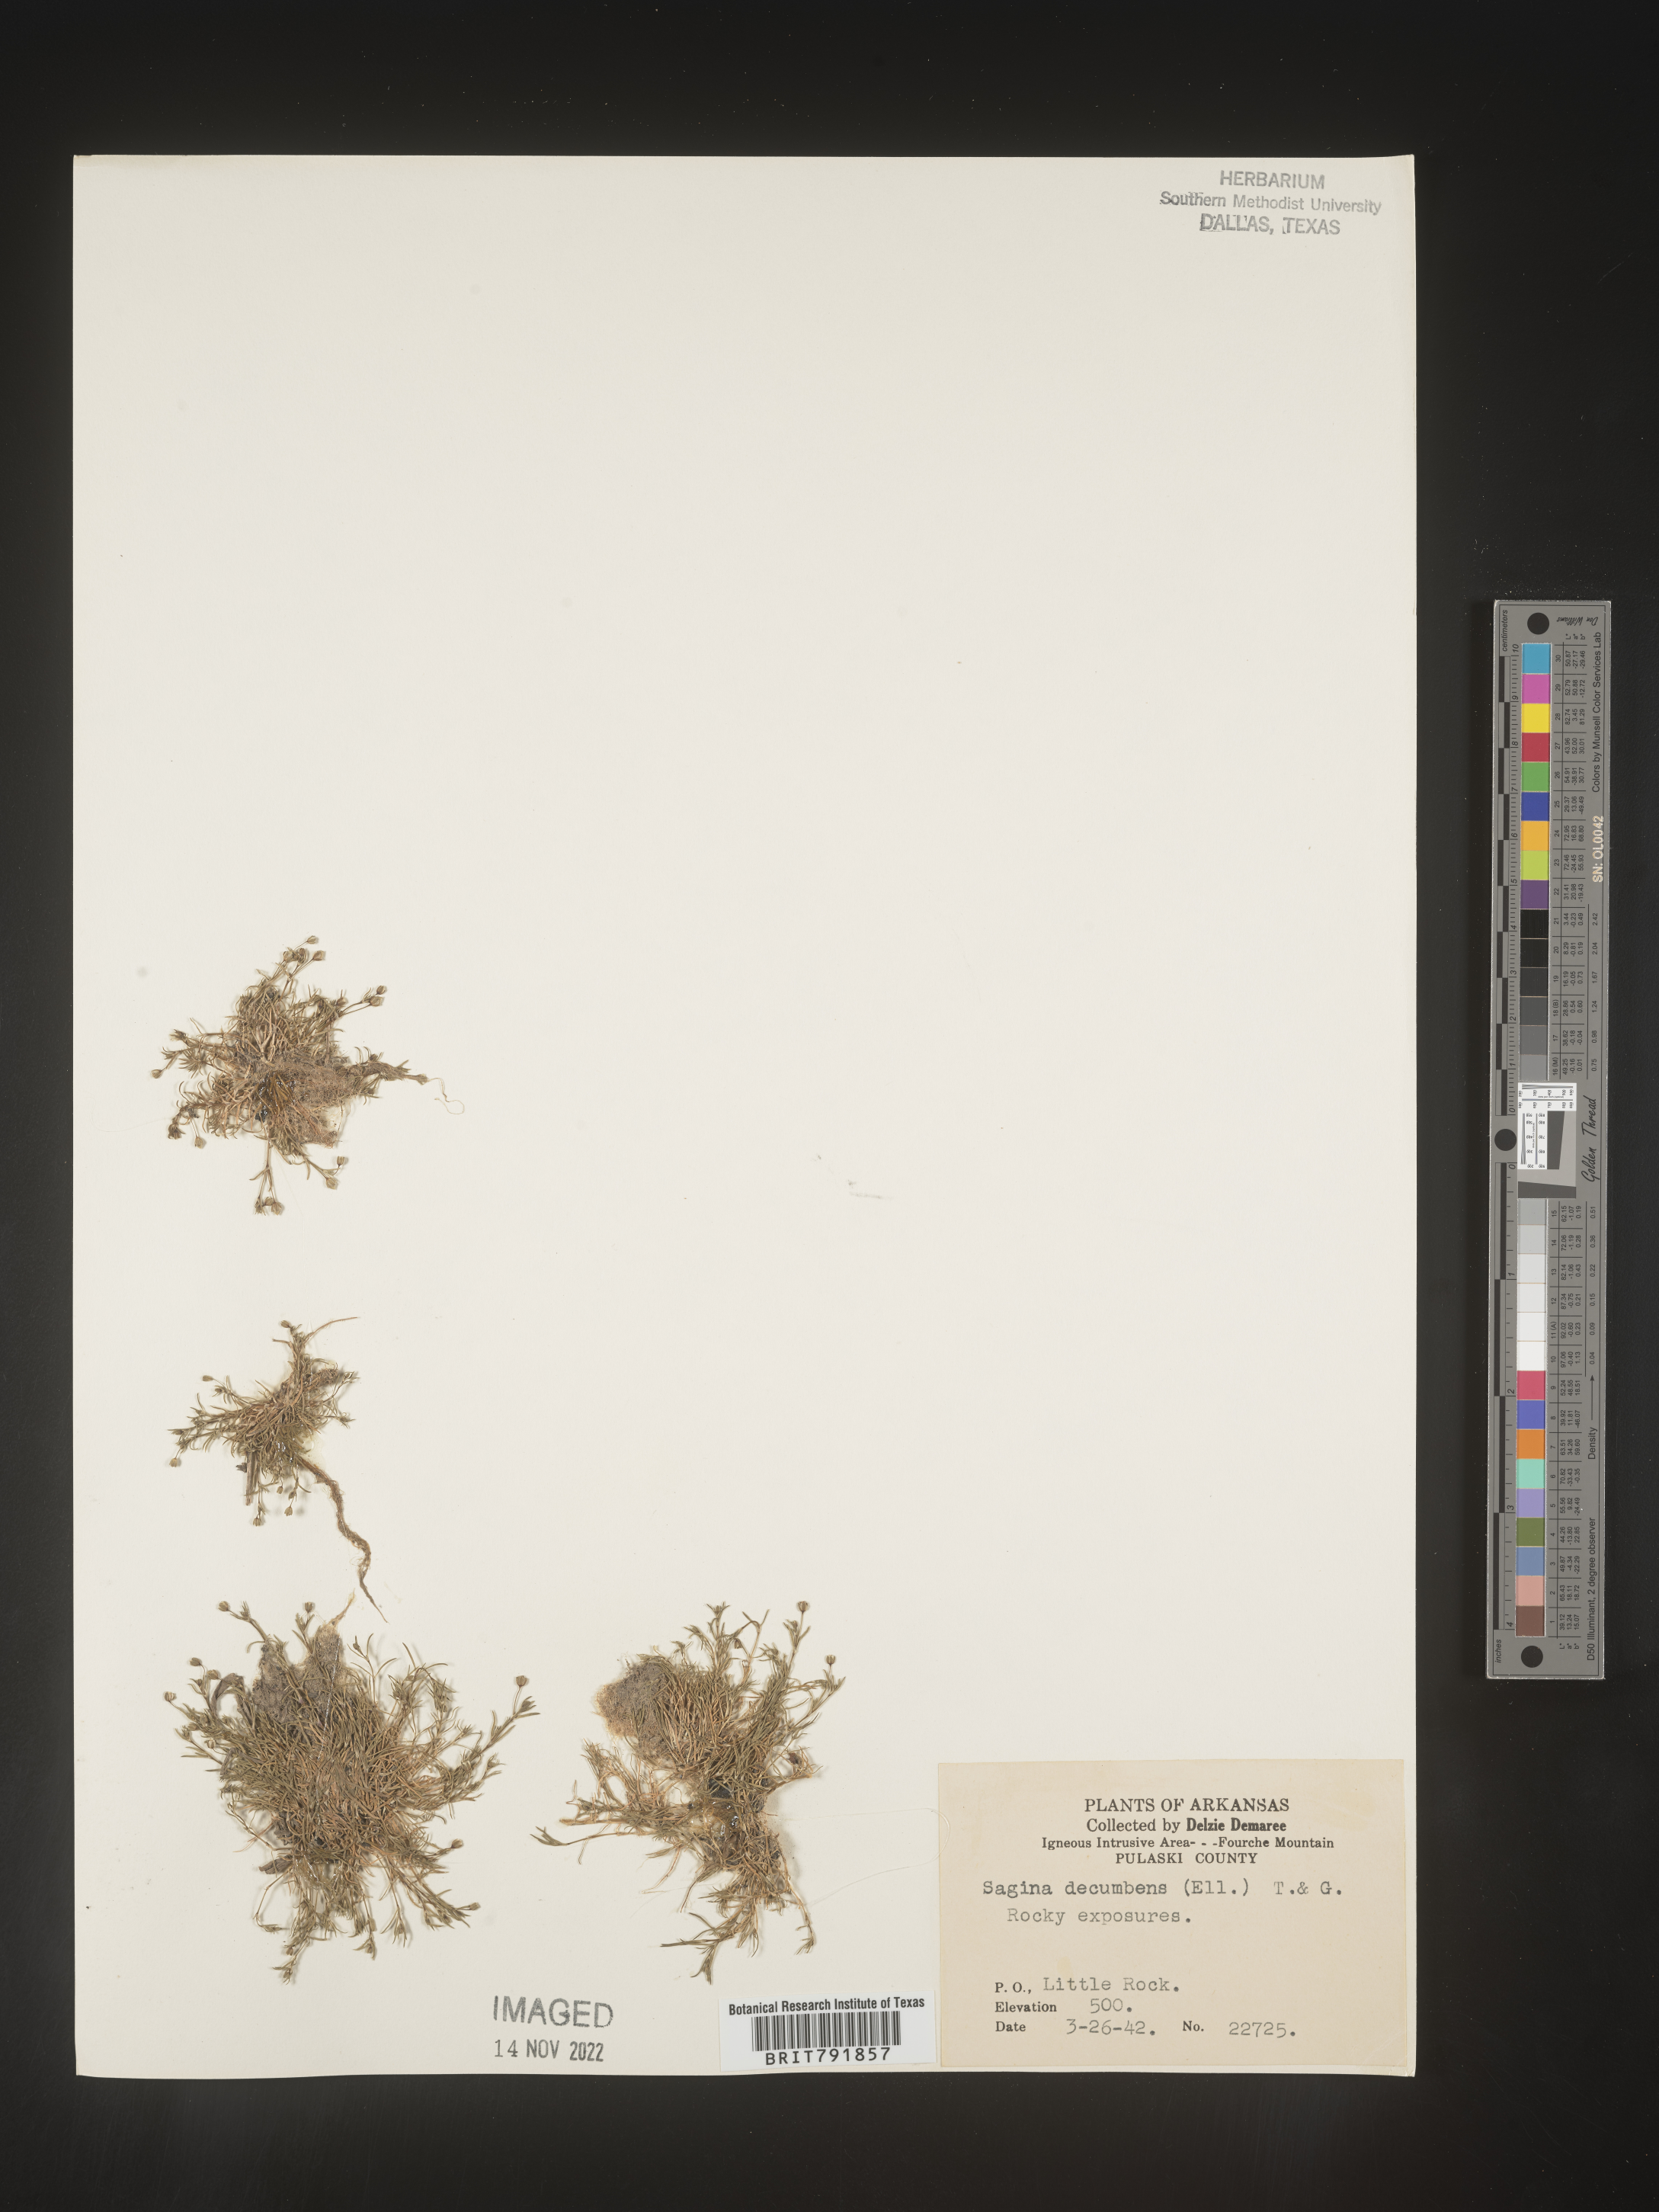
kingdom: Plantae
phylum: Tracheophyta
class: Magnoliopsida
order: Caryophyllales
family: Caryophyllaceae
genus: Sagina
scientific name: Sagina decumbens
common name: Decumbent pearlwort
